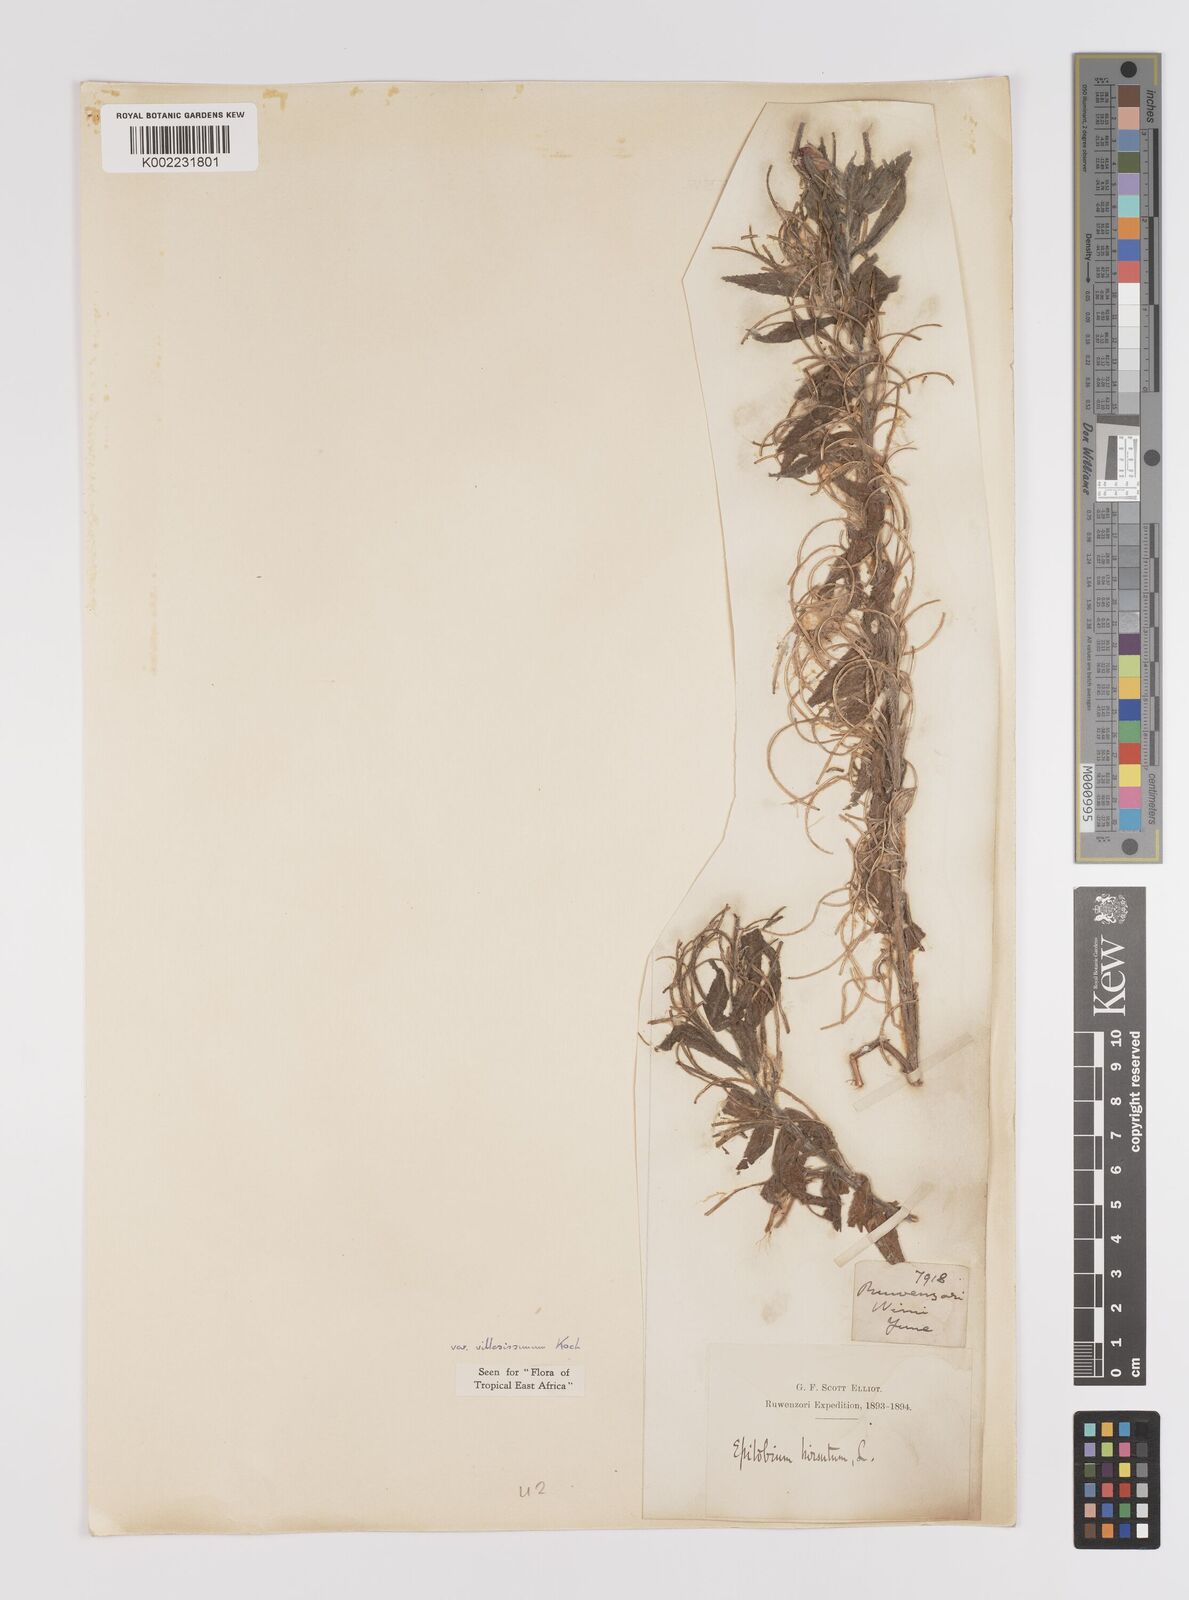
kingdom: Plantae
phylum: Tracheophyta
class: Magnoliopsida
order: Myrtales
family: Onagraceae
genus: Epilobium
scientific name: Epilobium hirsutum
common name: Great willowherb
